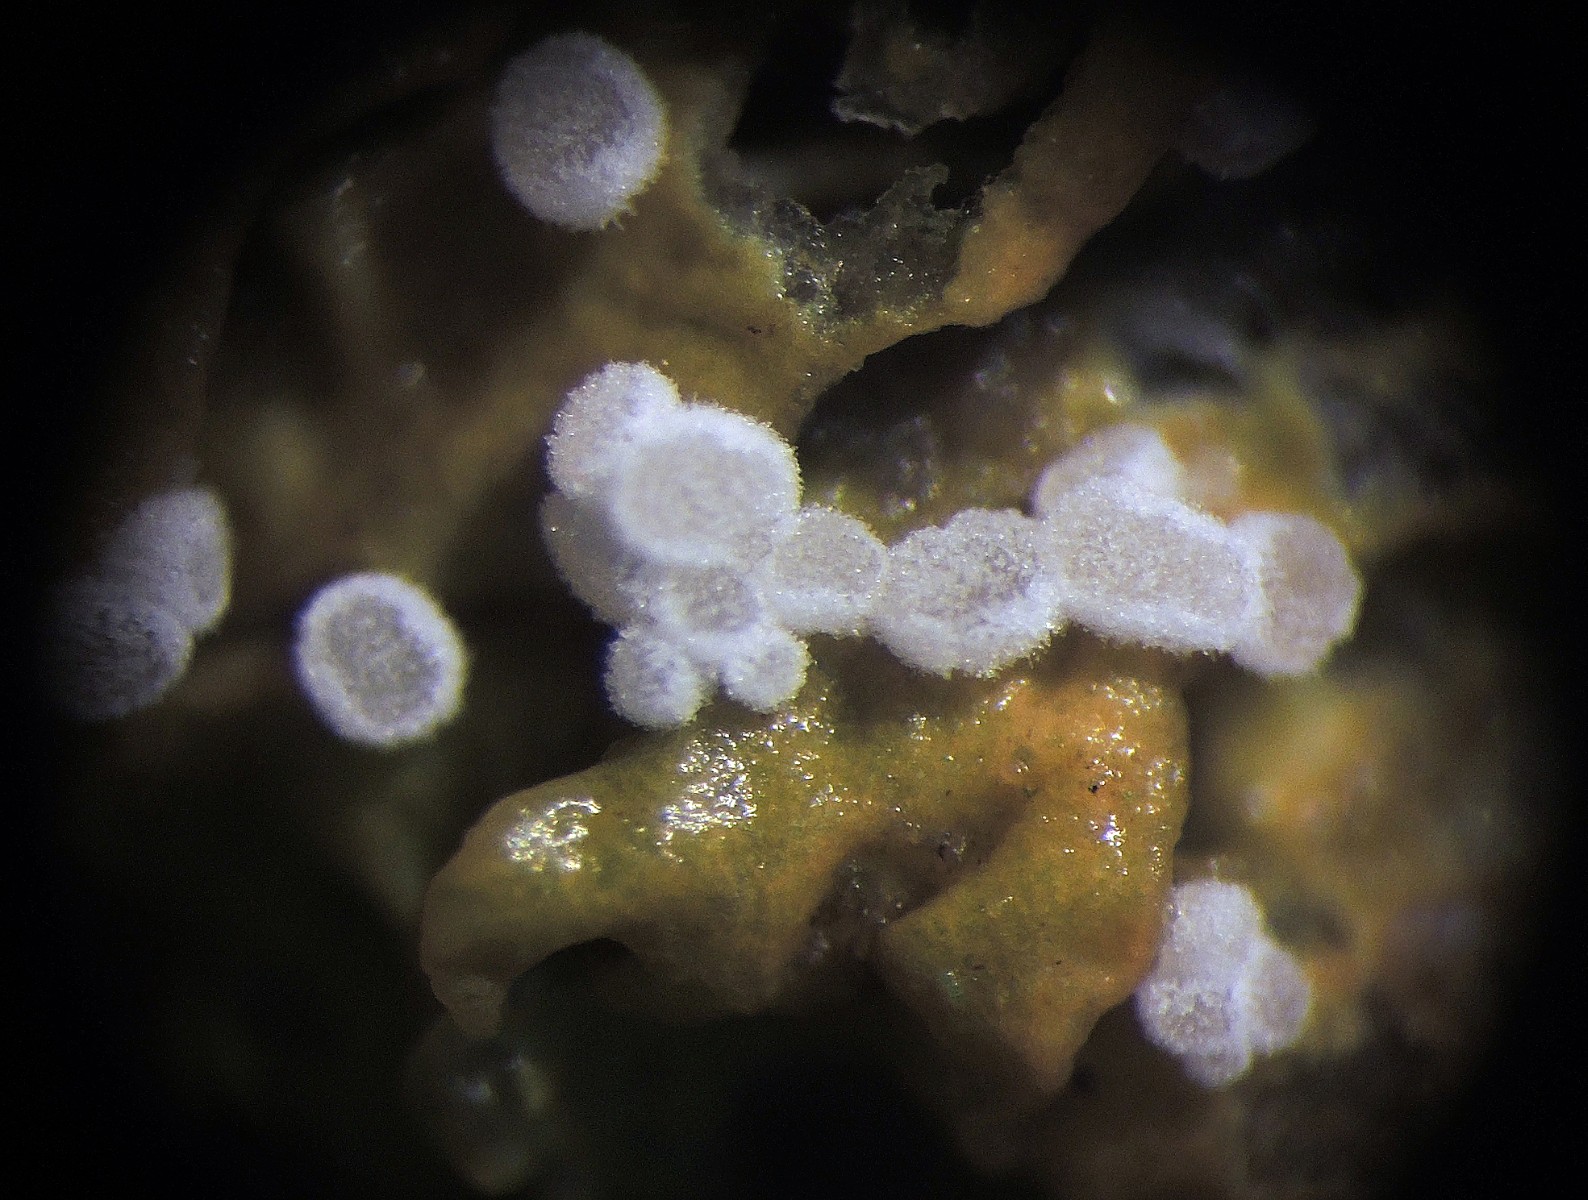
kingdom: Fungi
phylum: Ascomycota
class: Leotiomycetes
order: Helotiales
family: Hyaloscyphaceae
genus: Polydesmia
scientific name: Polydesmia lichenis
